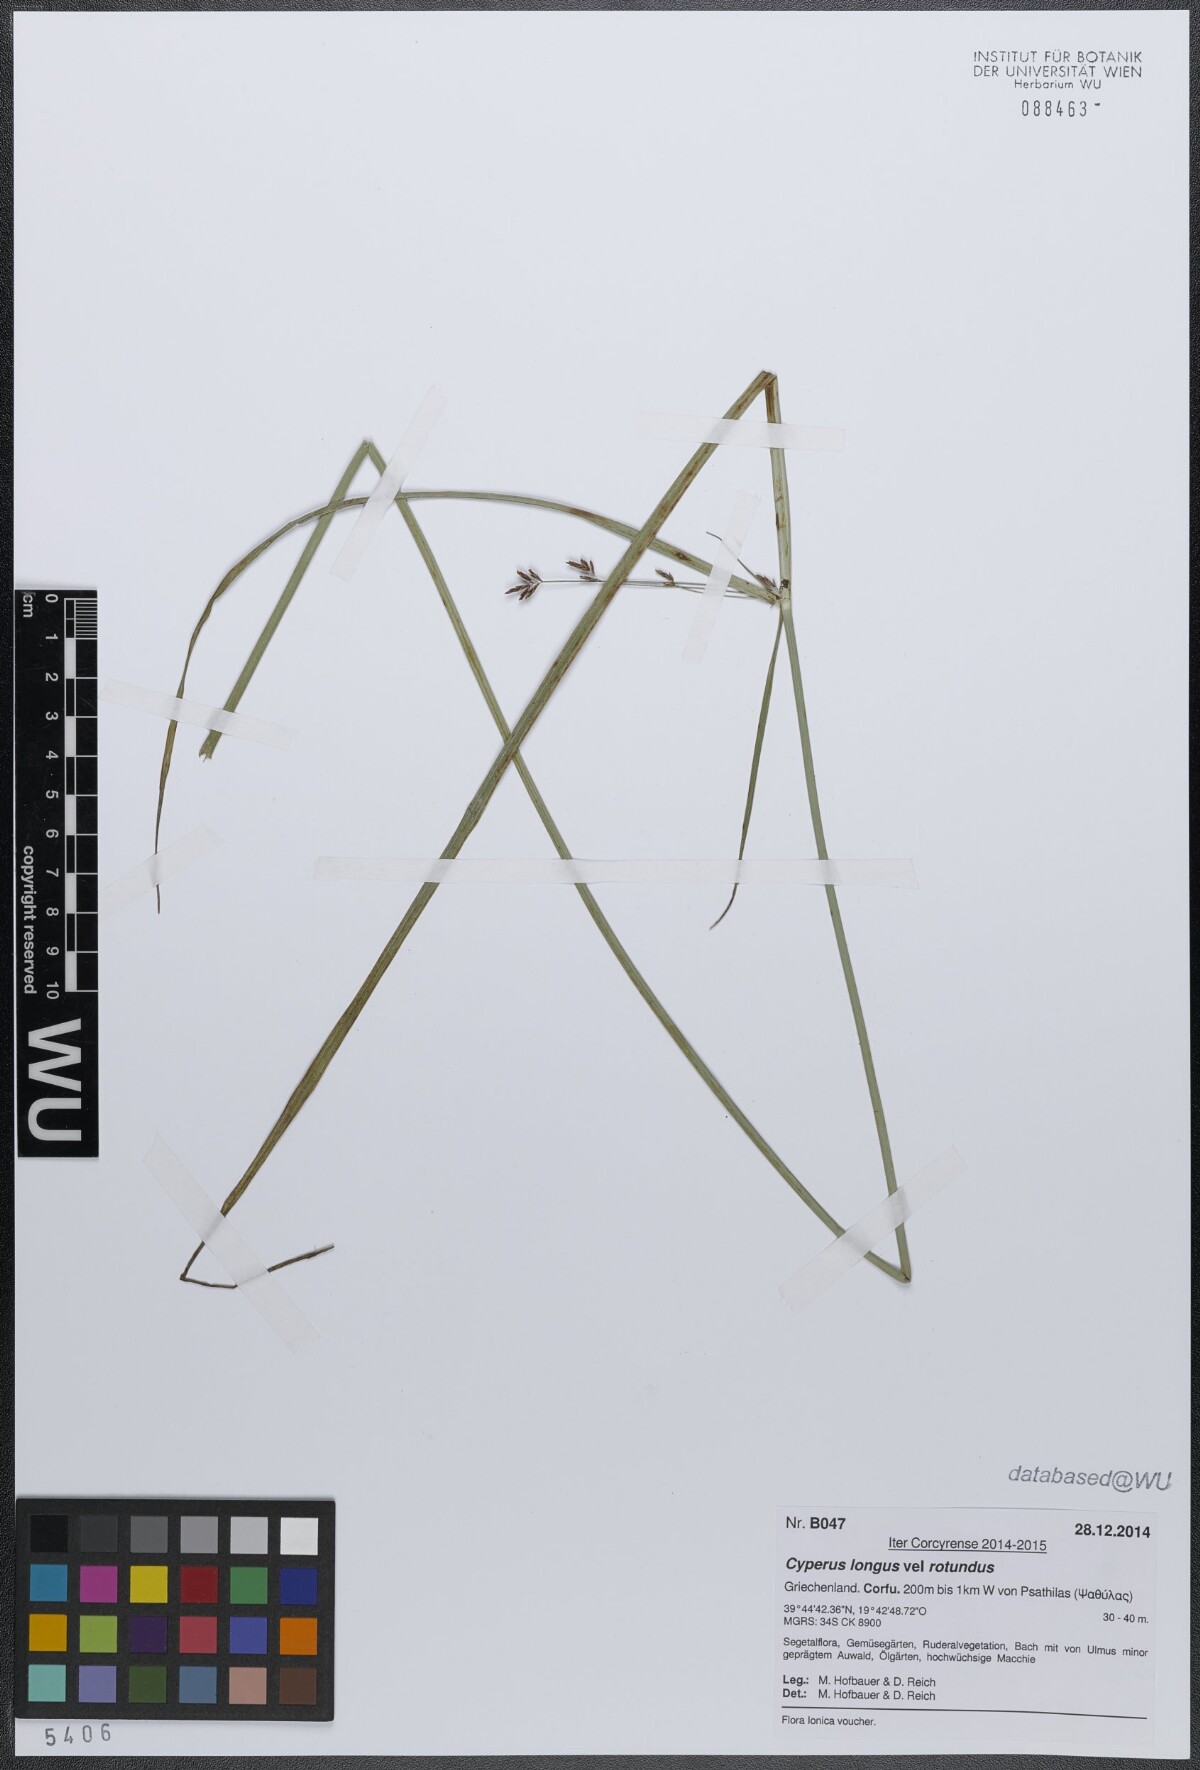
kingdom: Plantae
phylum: Tracheophyta
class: Liliopsida
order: Poales
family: Cyperaceae
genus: Cyperus
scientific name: Cyperus
